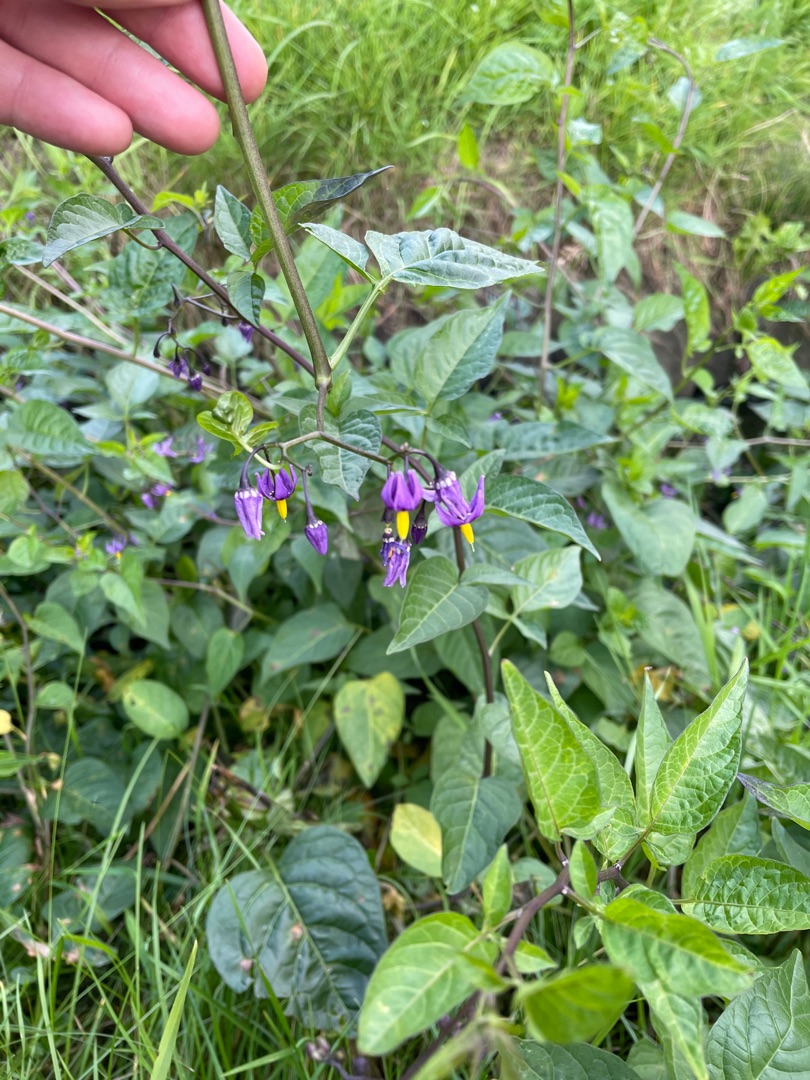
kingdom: Plantae
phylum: Tracheophyta
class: Magnoliopsida
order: Solanales
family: Solanaceae
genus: Solanum
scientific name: Solanum dulcamara
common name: Bittersød natskygge
